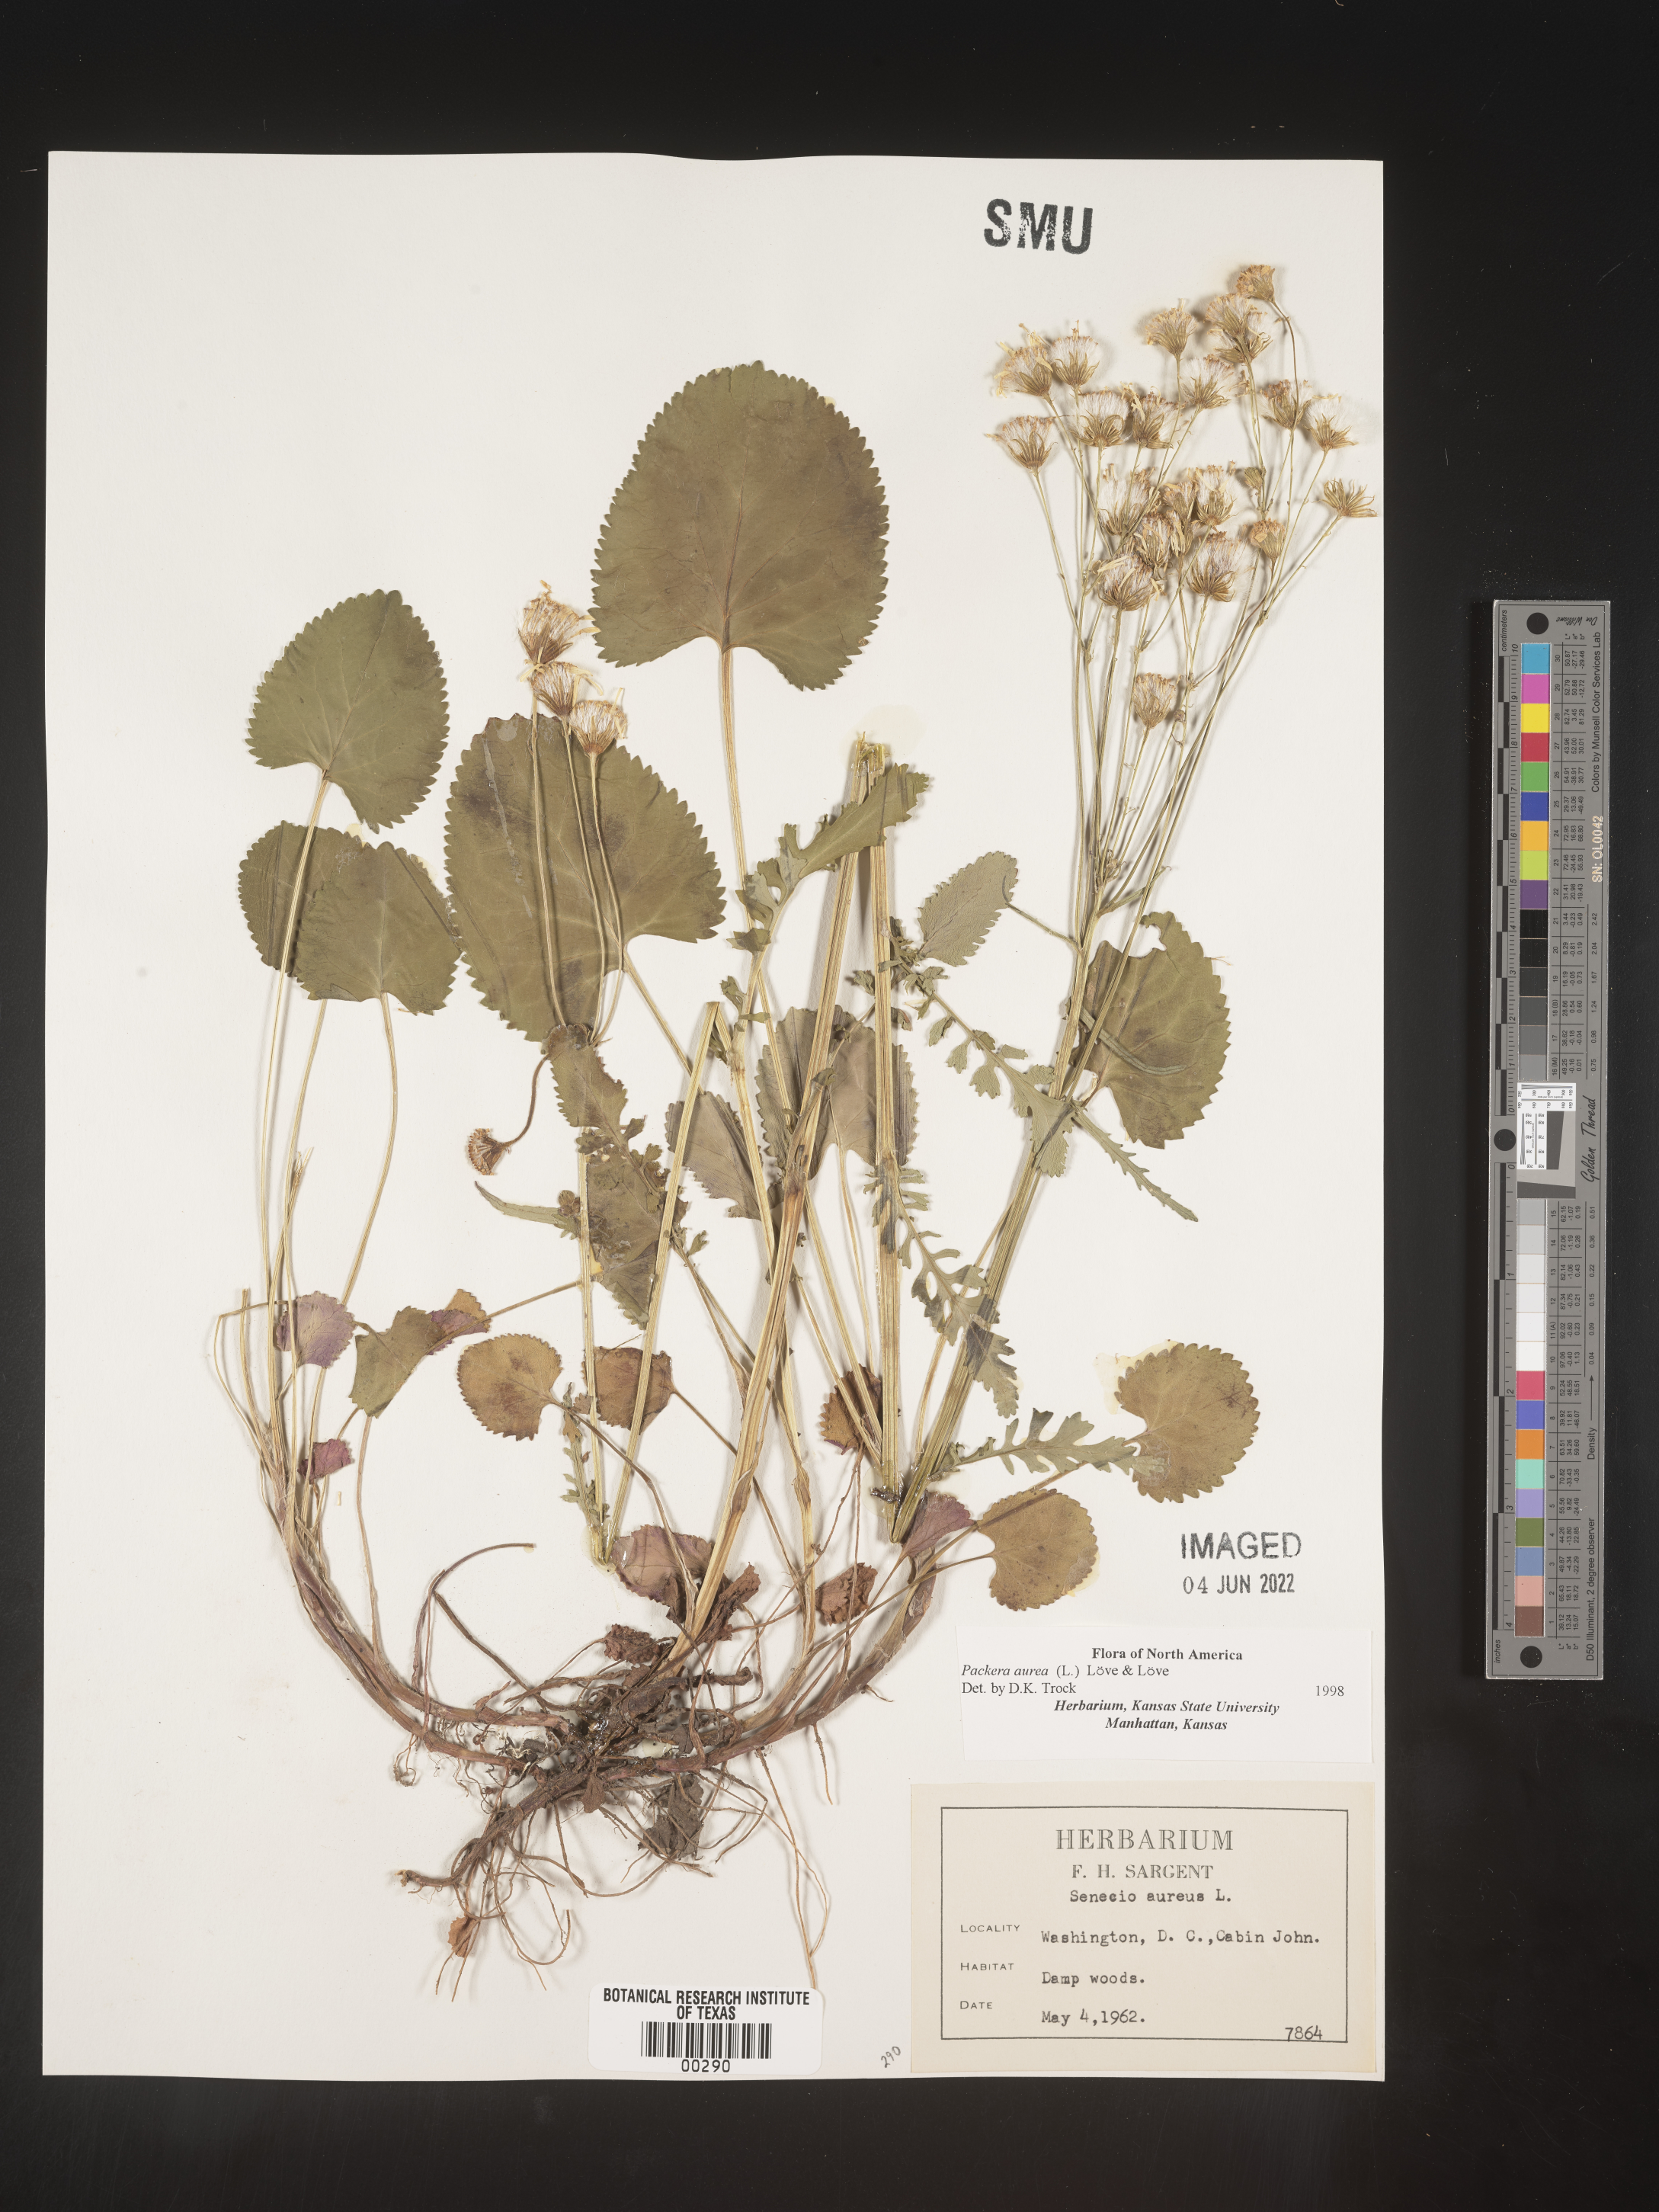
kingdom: Plantae
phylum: Tracheophyta
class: Magnoliopsida
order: Asterales
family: Asteraceae
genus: Packera
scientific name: Packera aurea
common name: Golden groundsel
